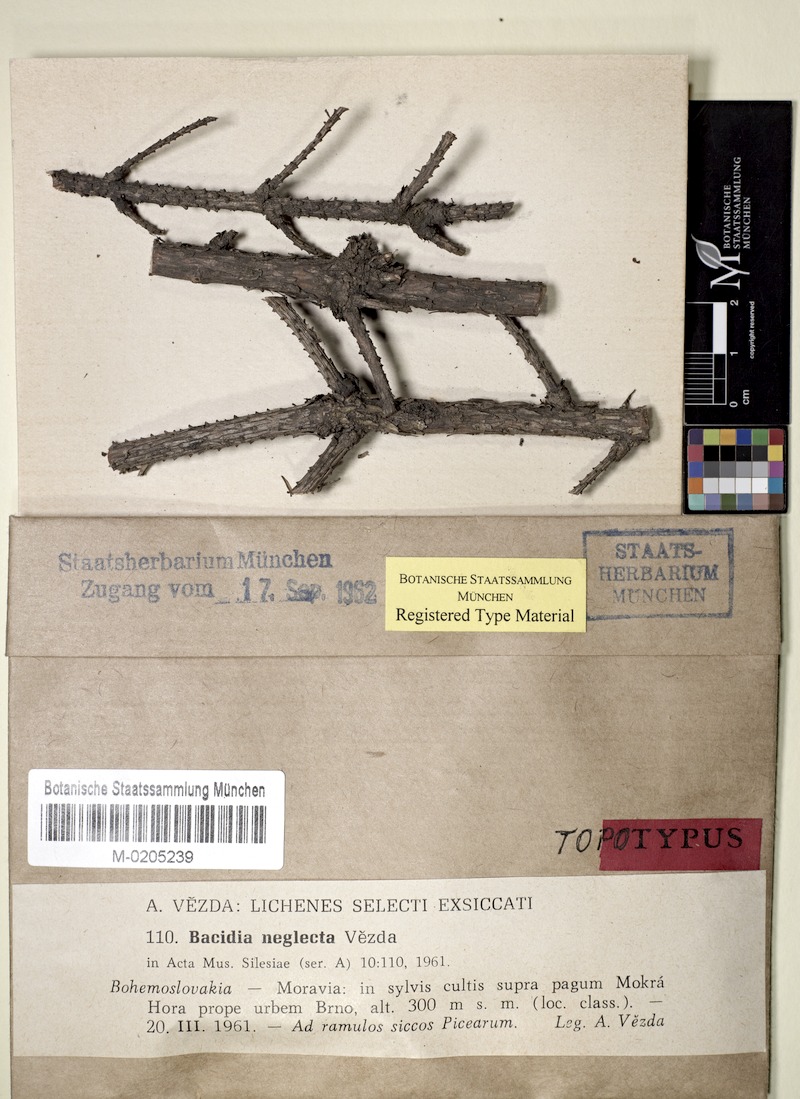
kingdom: Fungi
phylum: Ascomycota
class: Lecanoromycetes
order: Lecanorales
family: Ramalinaceae
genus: Bacidina
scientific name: Bacidina neglecta
